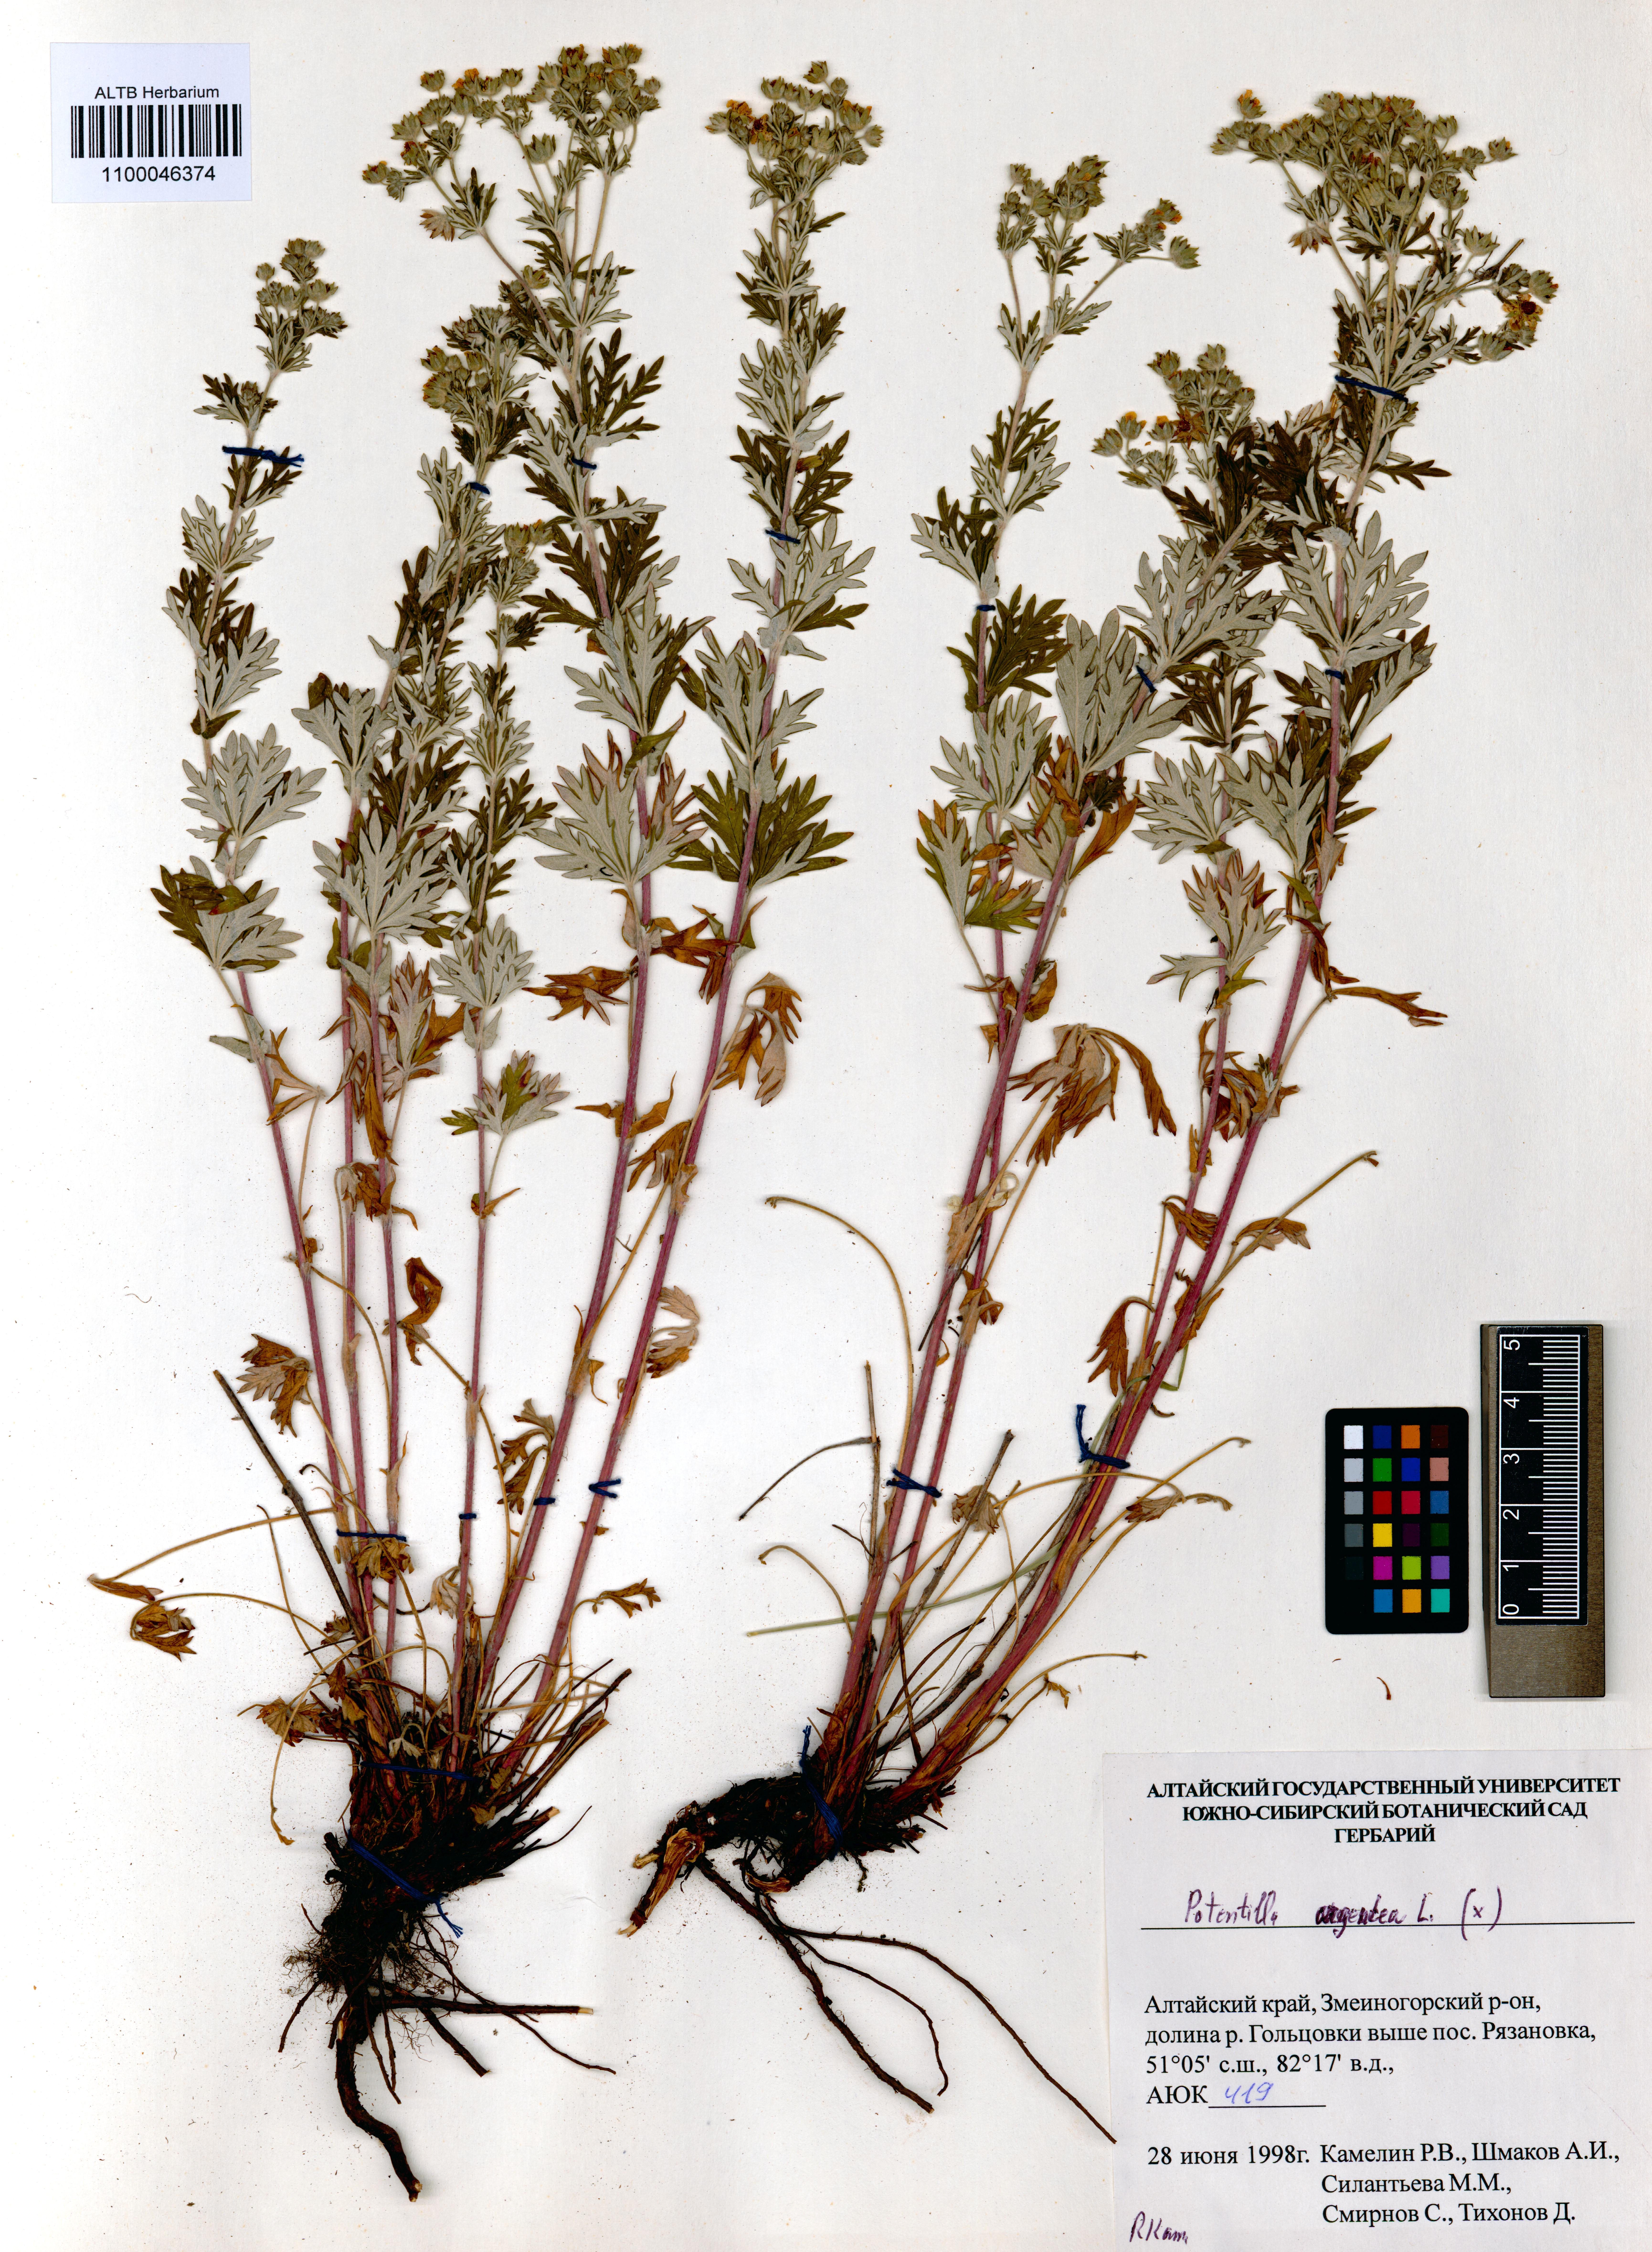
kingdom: Plantae
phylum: Tracheophyta
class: Magnoliopsida
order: Rosales
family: Rosaceae
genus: Potentilla
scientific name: Potentilla argentea
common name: Hoary cinquefoil
